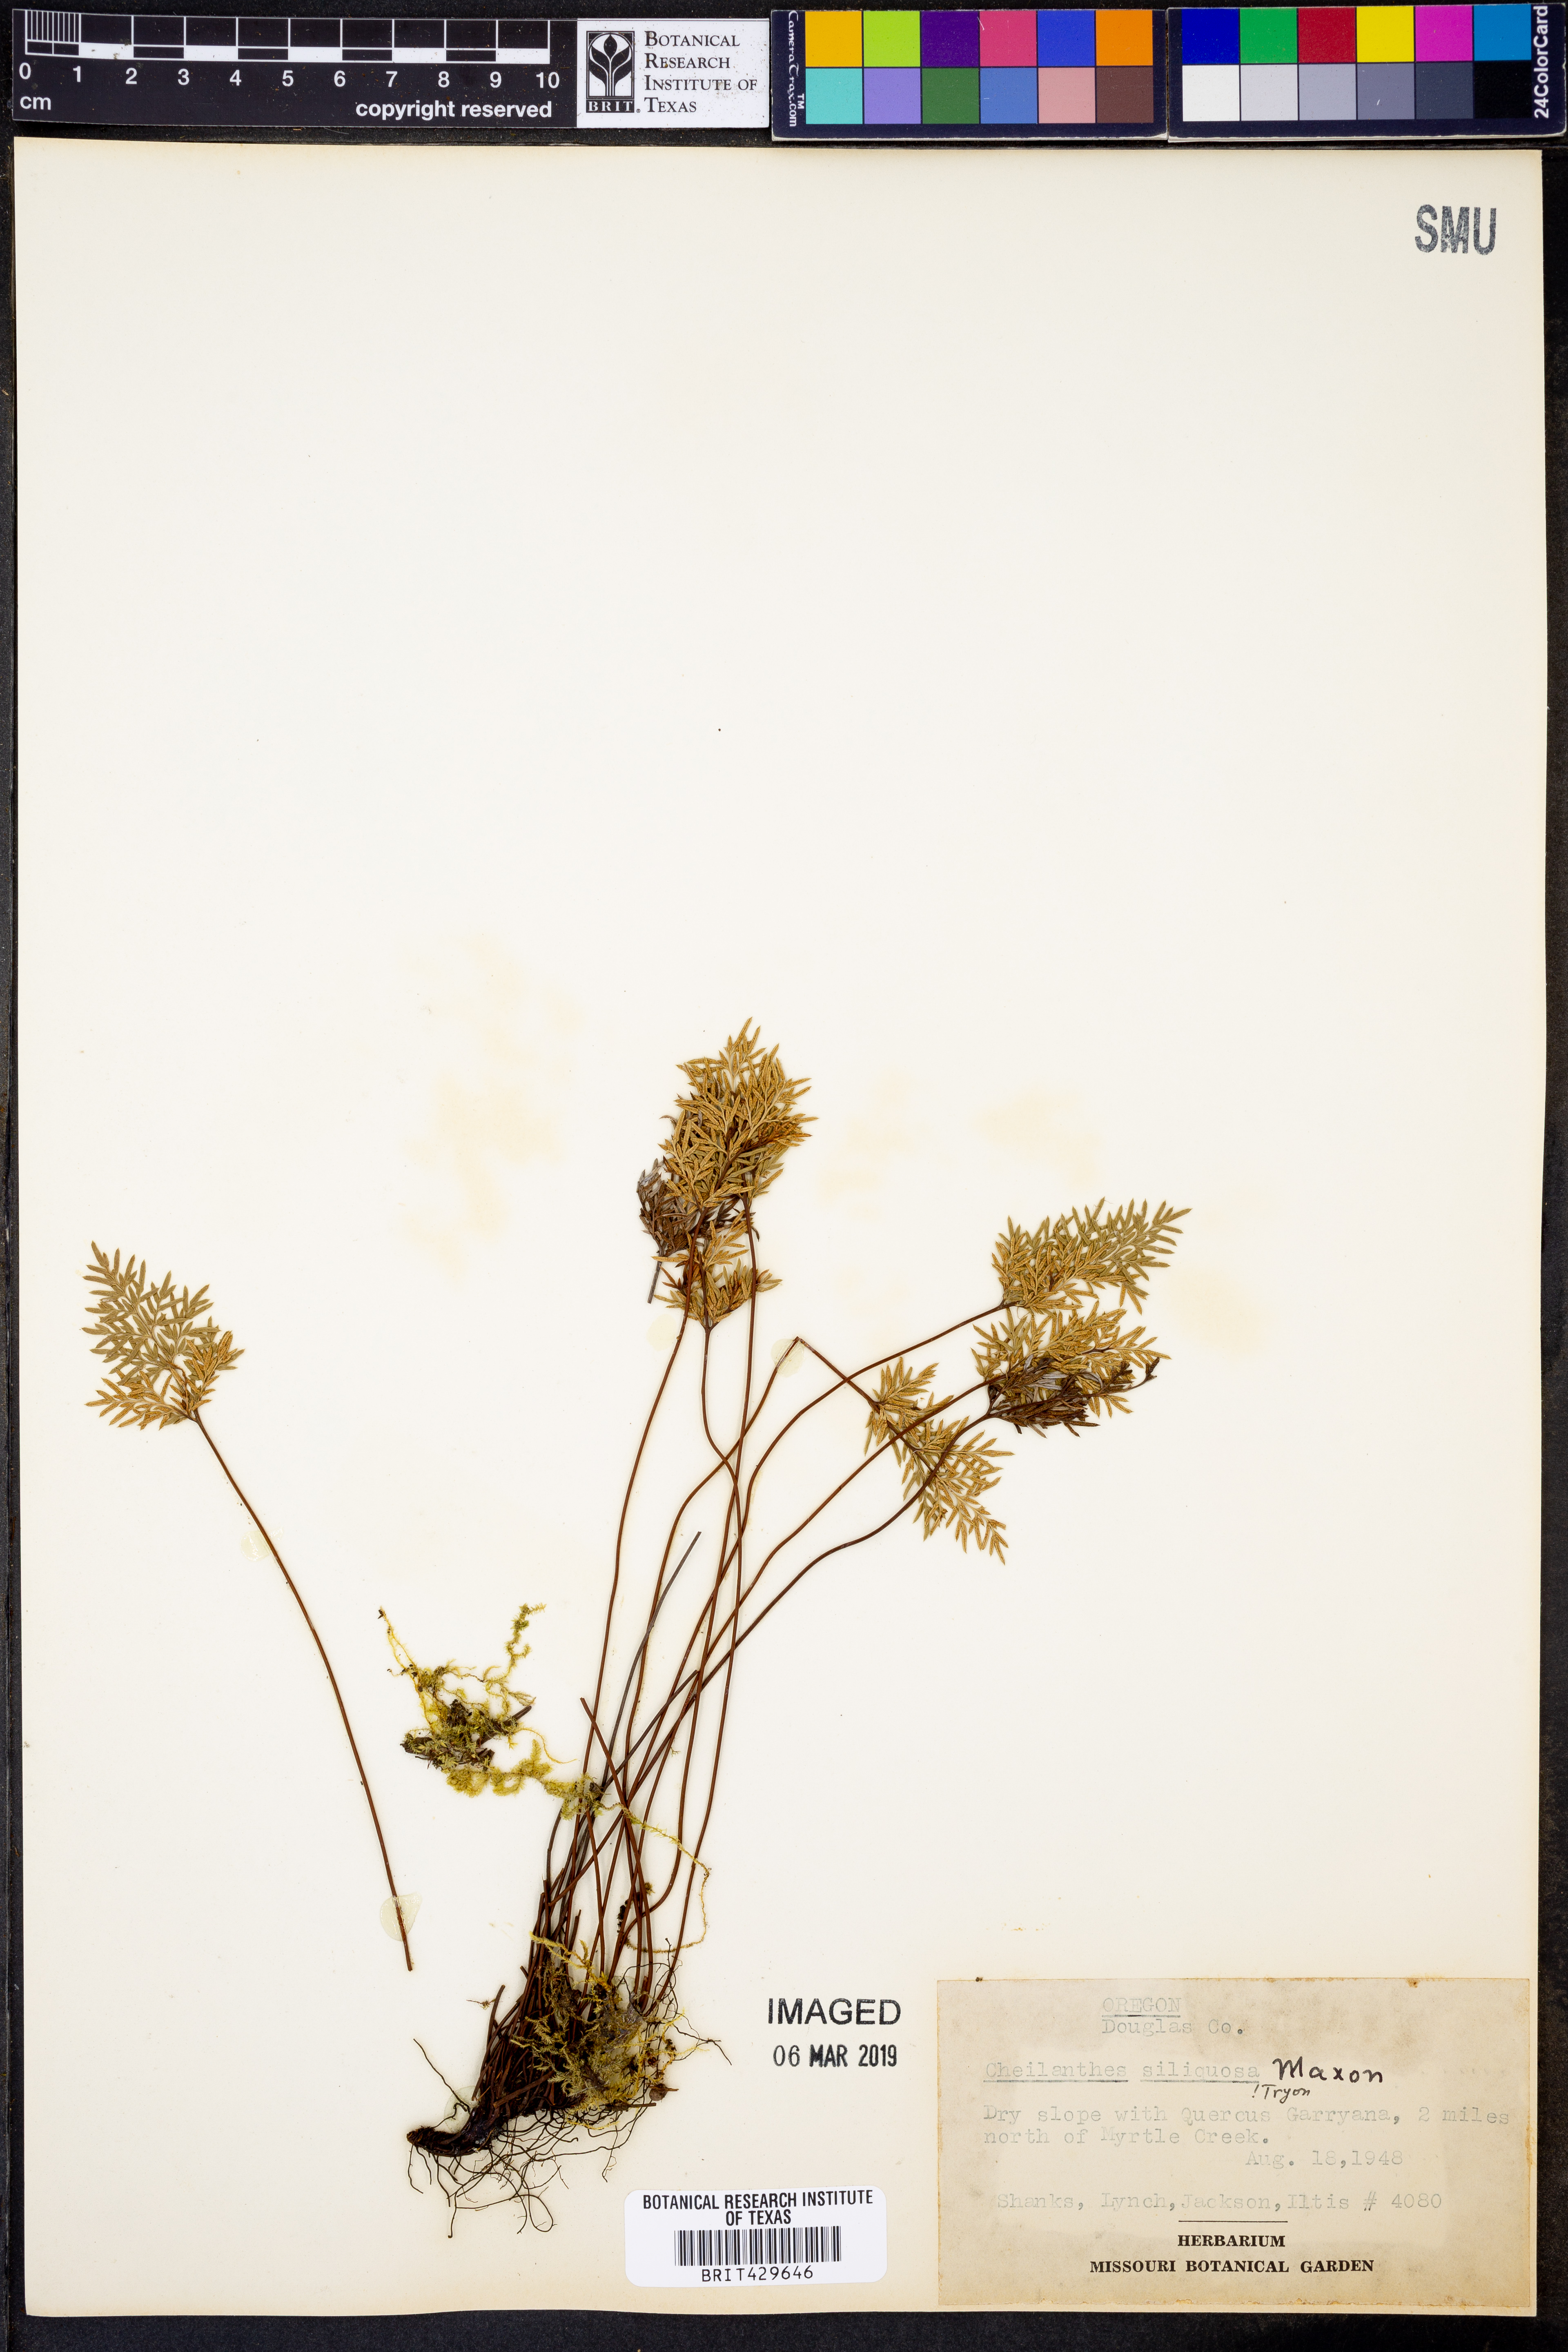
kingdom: Plantae
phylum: Tracheophyta
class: Polypodiopsida
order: Polypodiales
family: Pteridaceae
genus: Aspidotis
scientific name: Aspidotis densa
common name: Indian's dream
